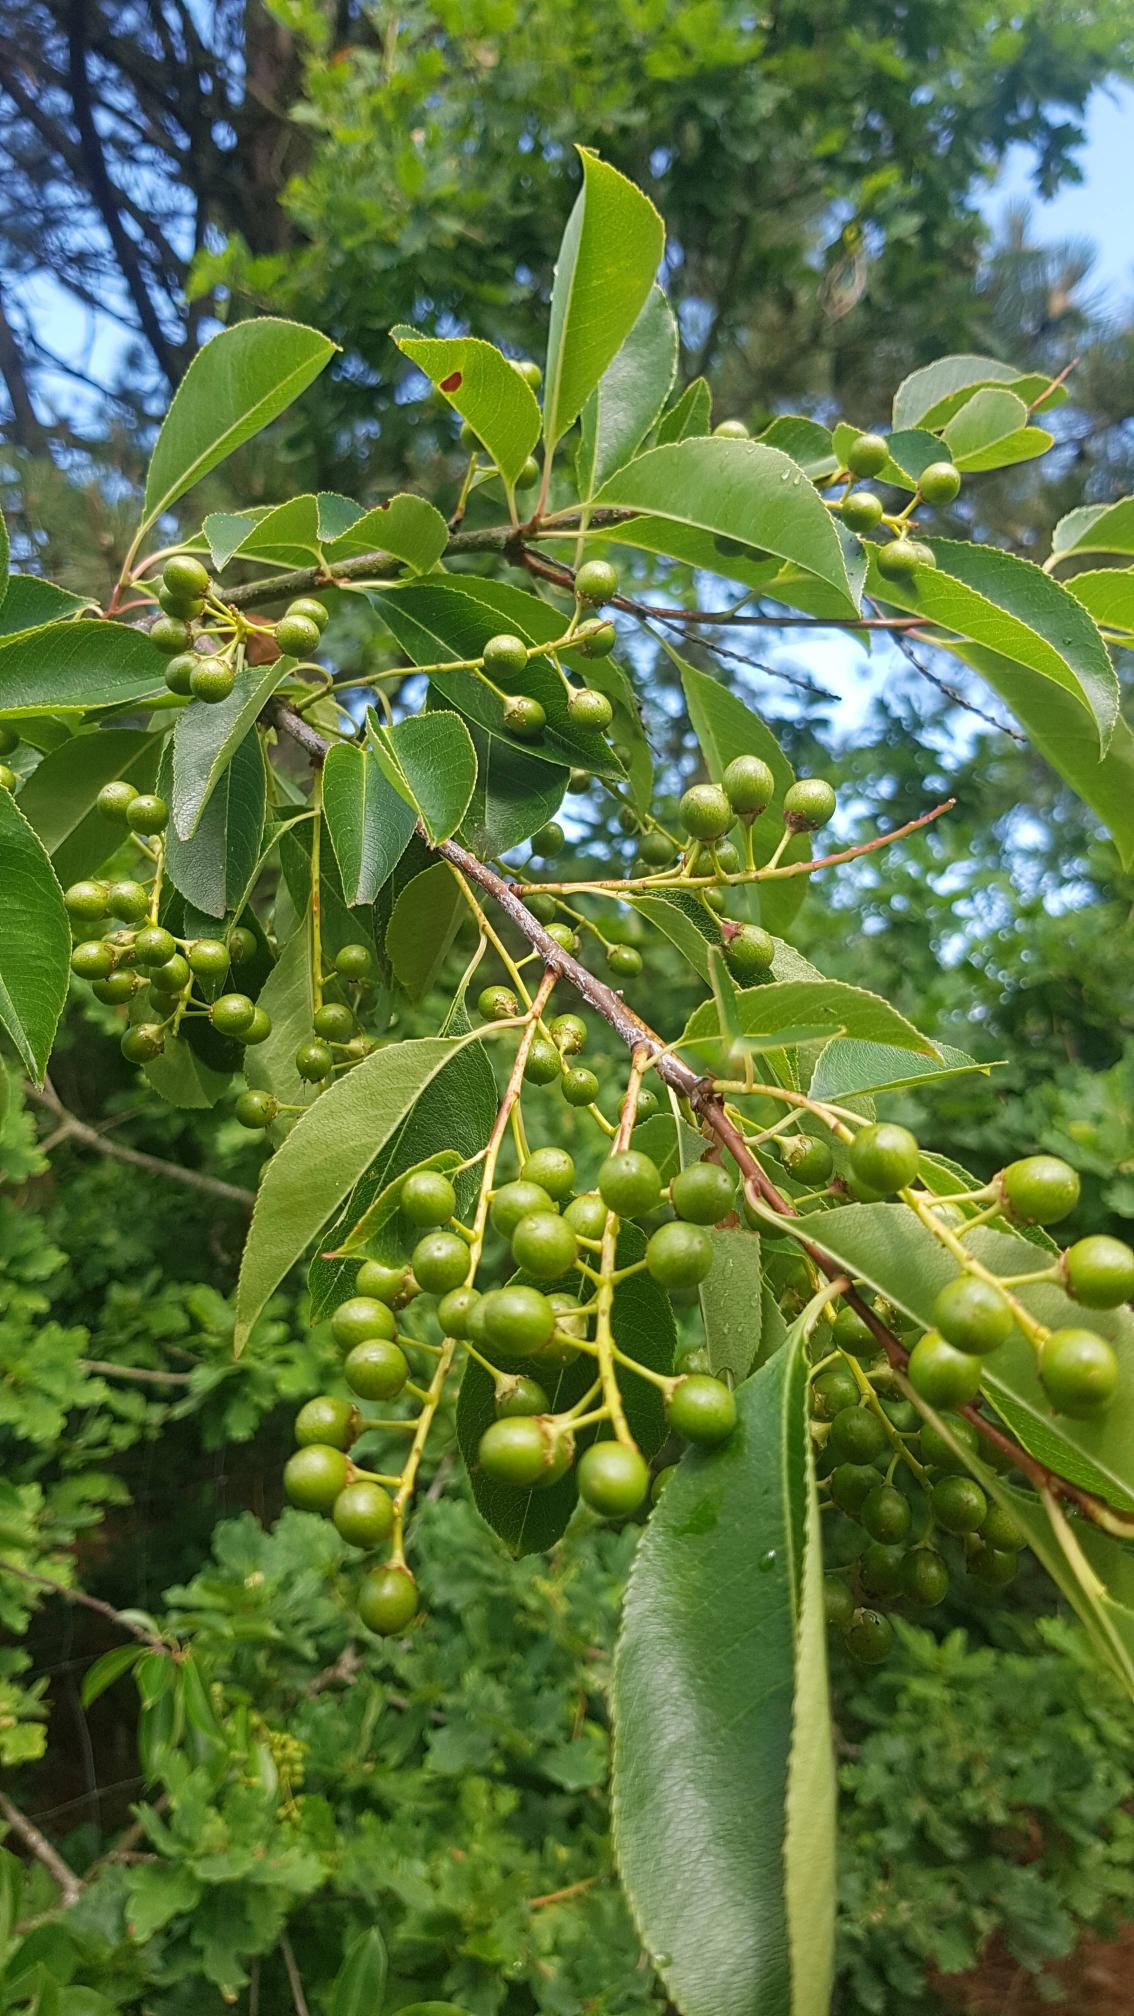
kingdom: Plantae
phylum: Tracheophyta
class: Magnoliopsida
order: Rosales
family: Rosaceae
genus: Prunus
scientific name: Prunus serotina
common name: Glansbladet hæg
